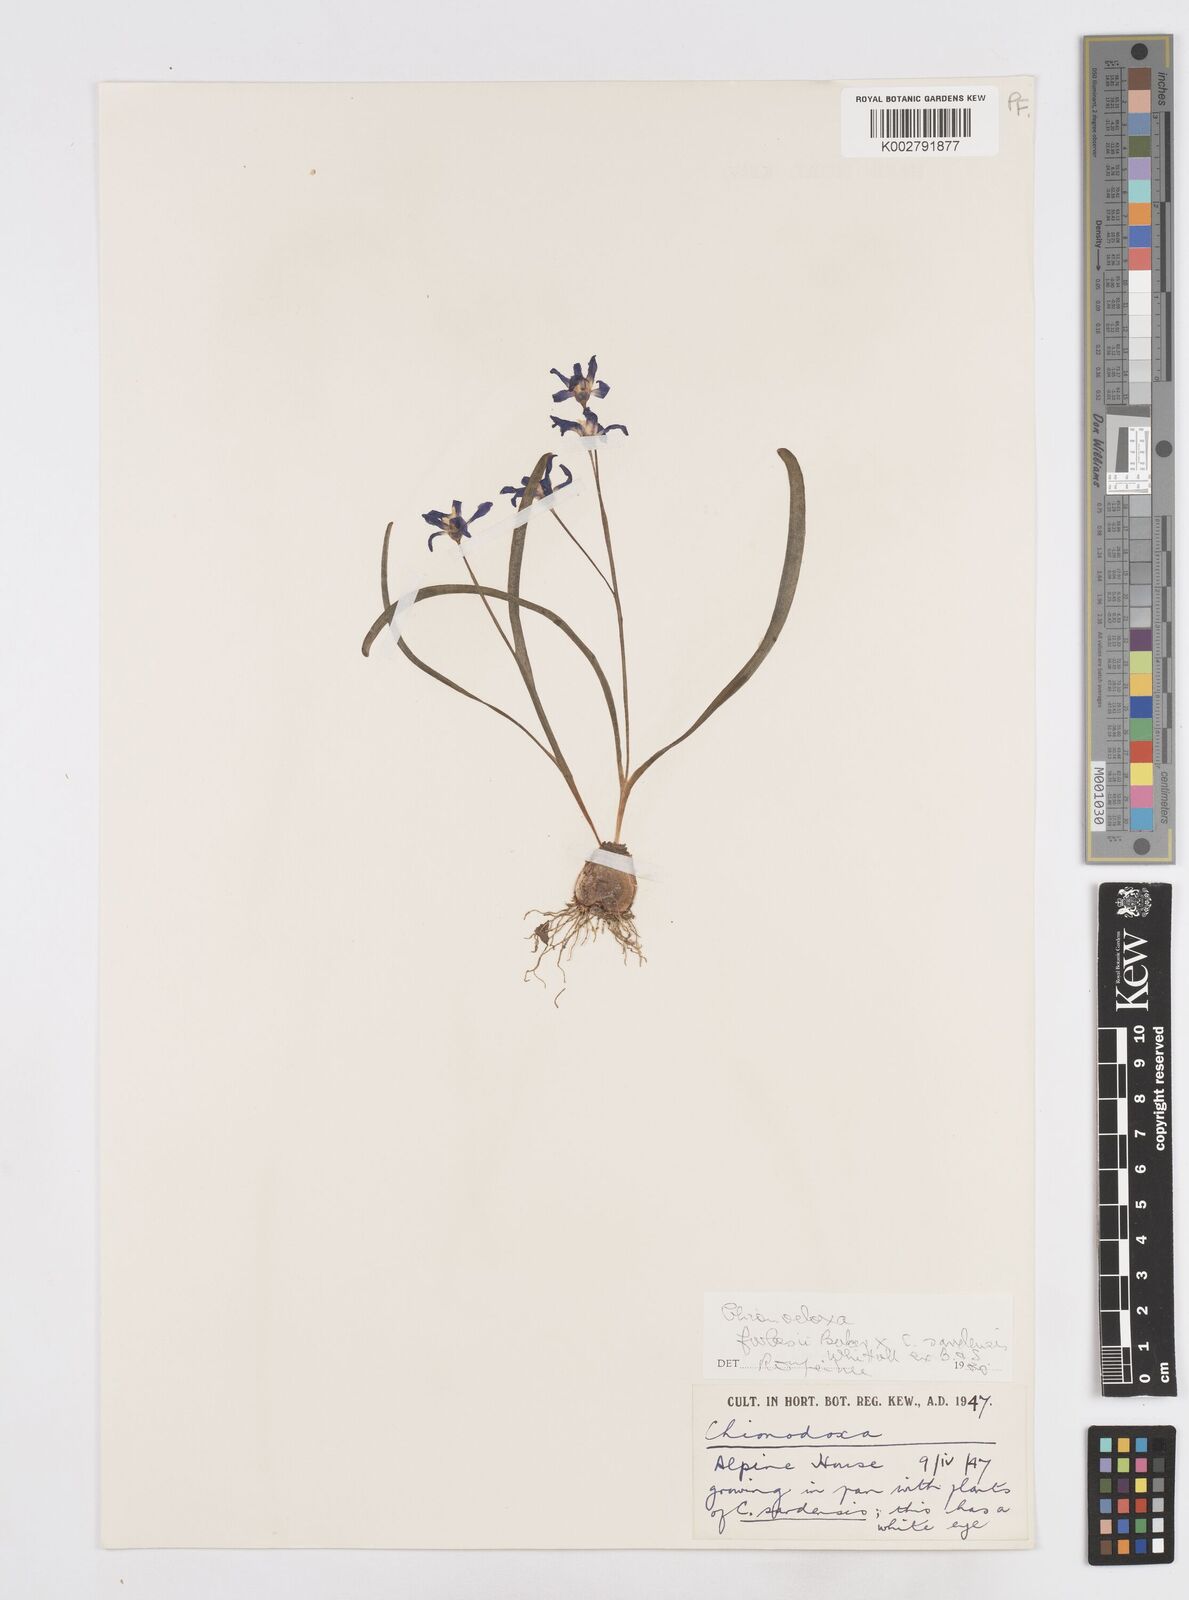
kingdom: Plantae
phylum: Tracheophyta
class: Liliopsida
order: Asparagales
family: Asparagaceae
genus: Scilla
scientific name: Scilla
